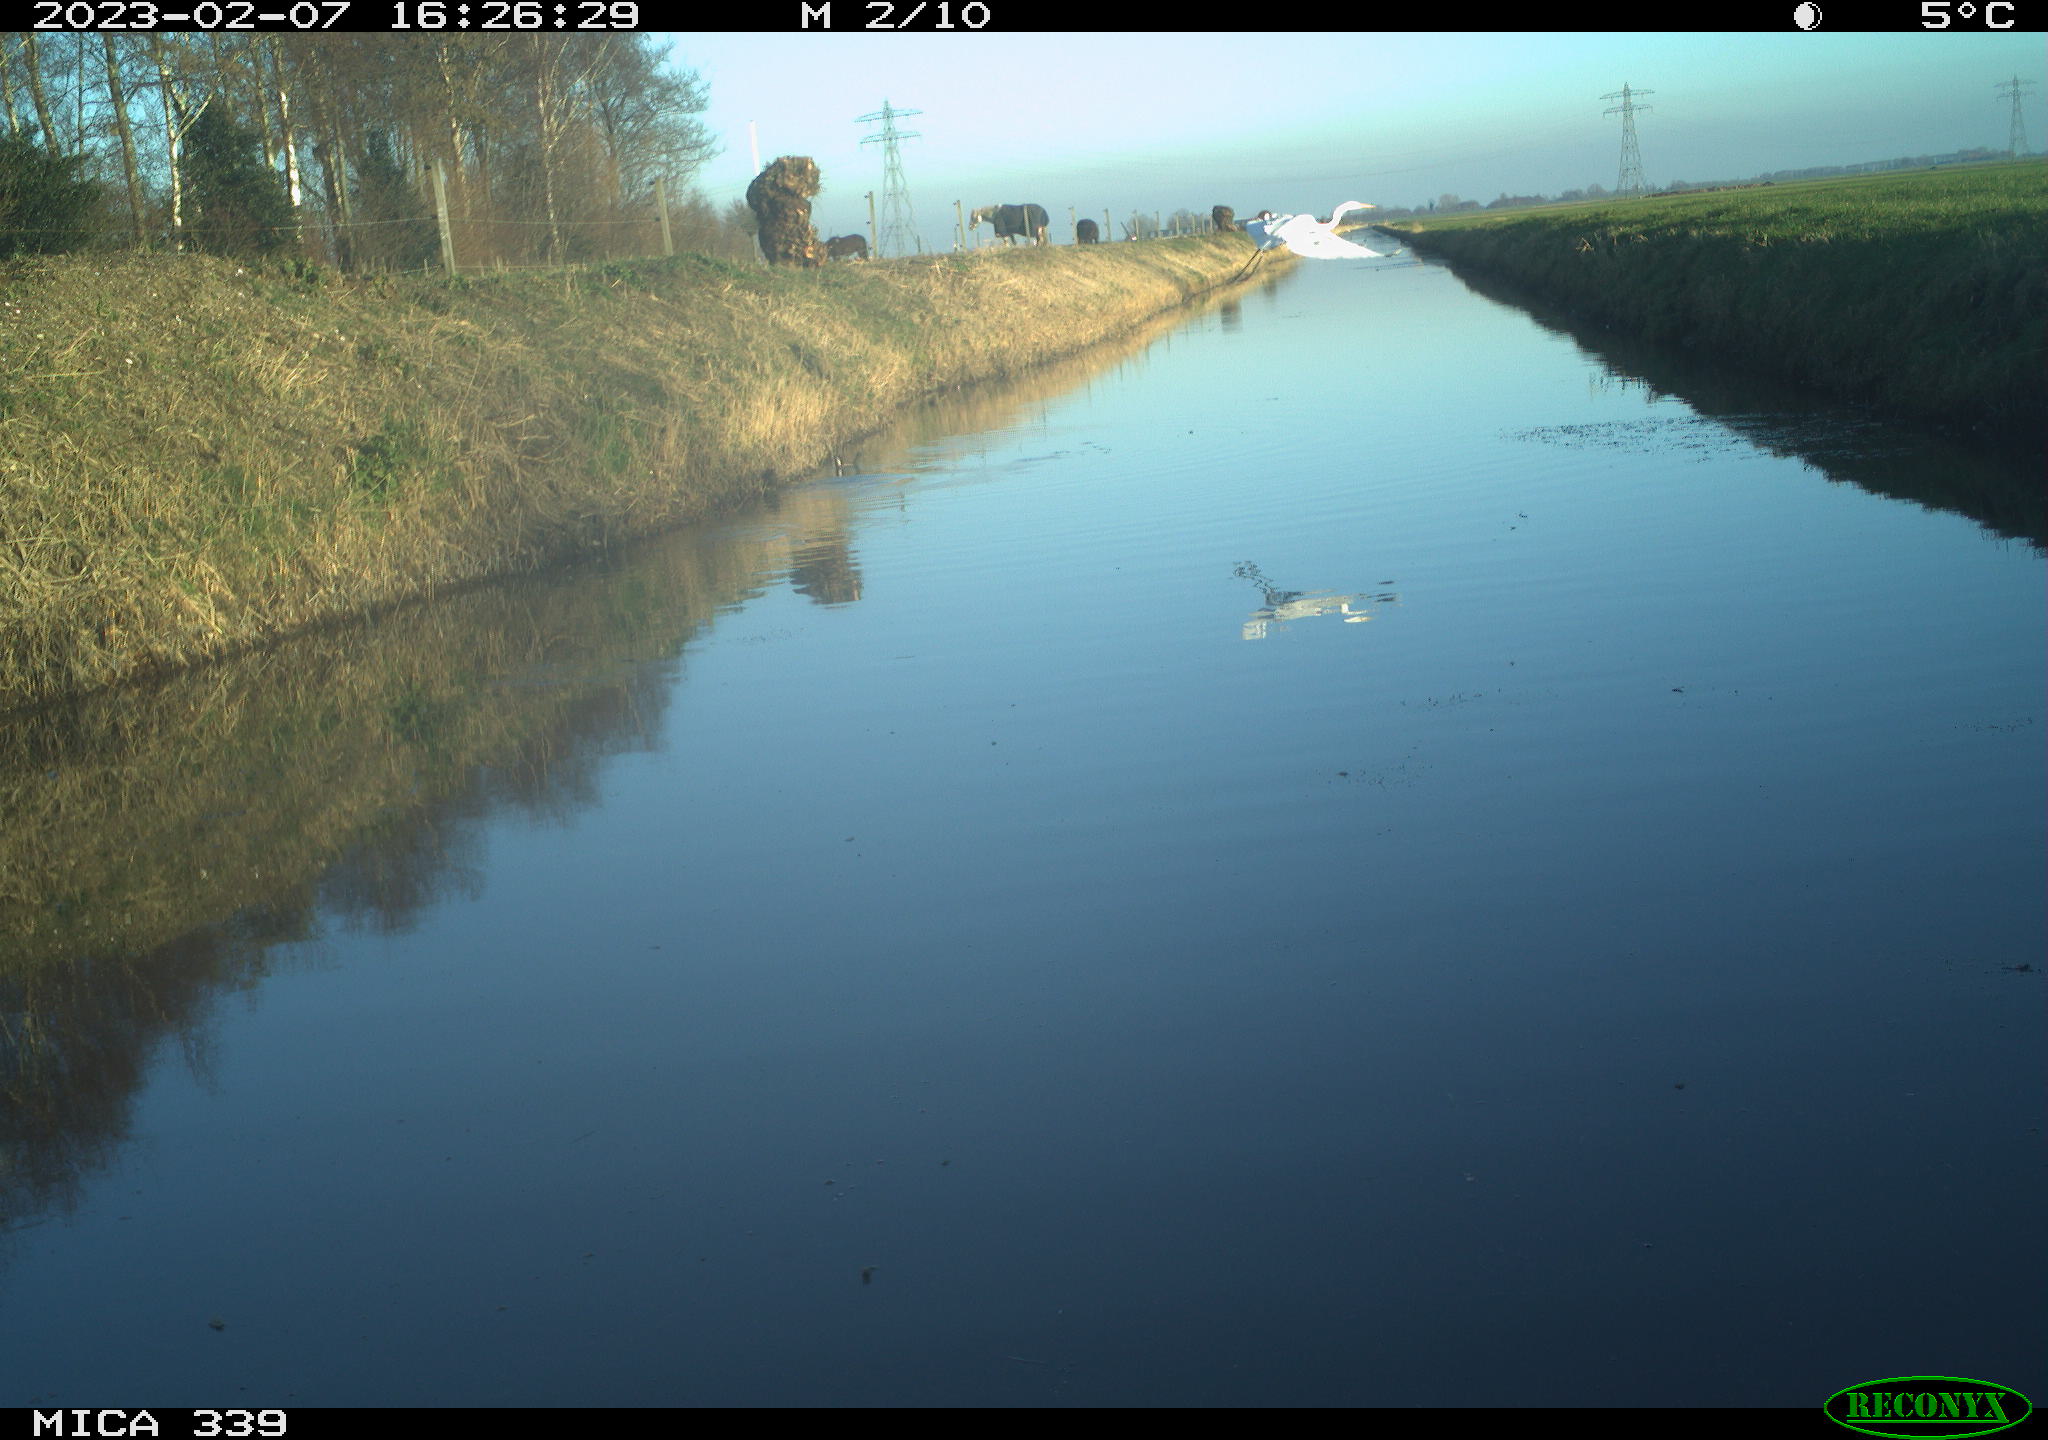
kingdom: Animalia
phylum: Chordata
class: Aves
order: Pelecaniformes
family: Ardeidae
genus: Ardea
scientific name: Ardea alba
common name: Great egret
